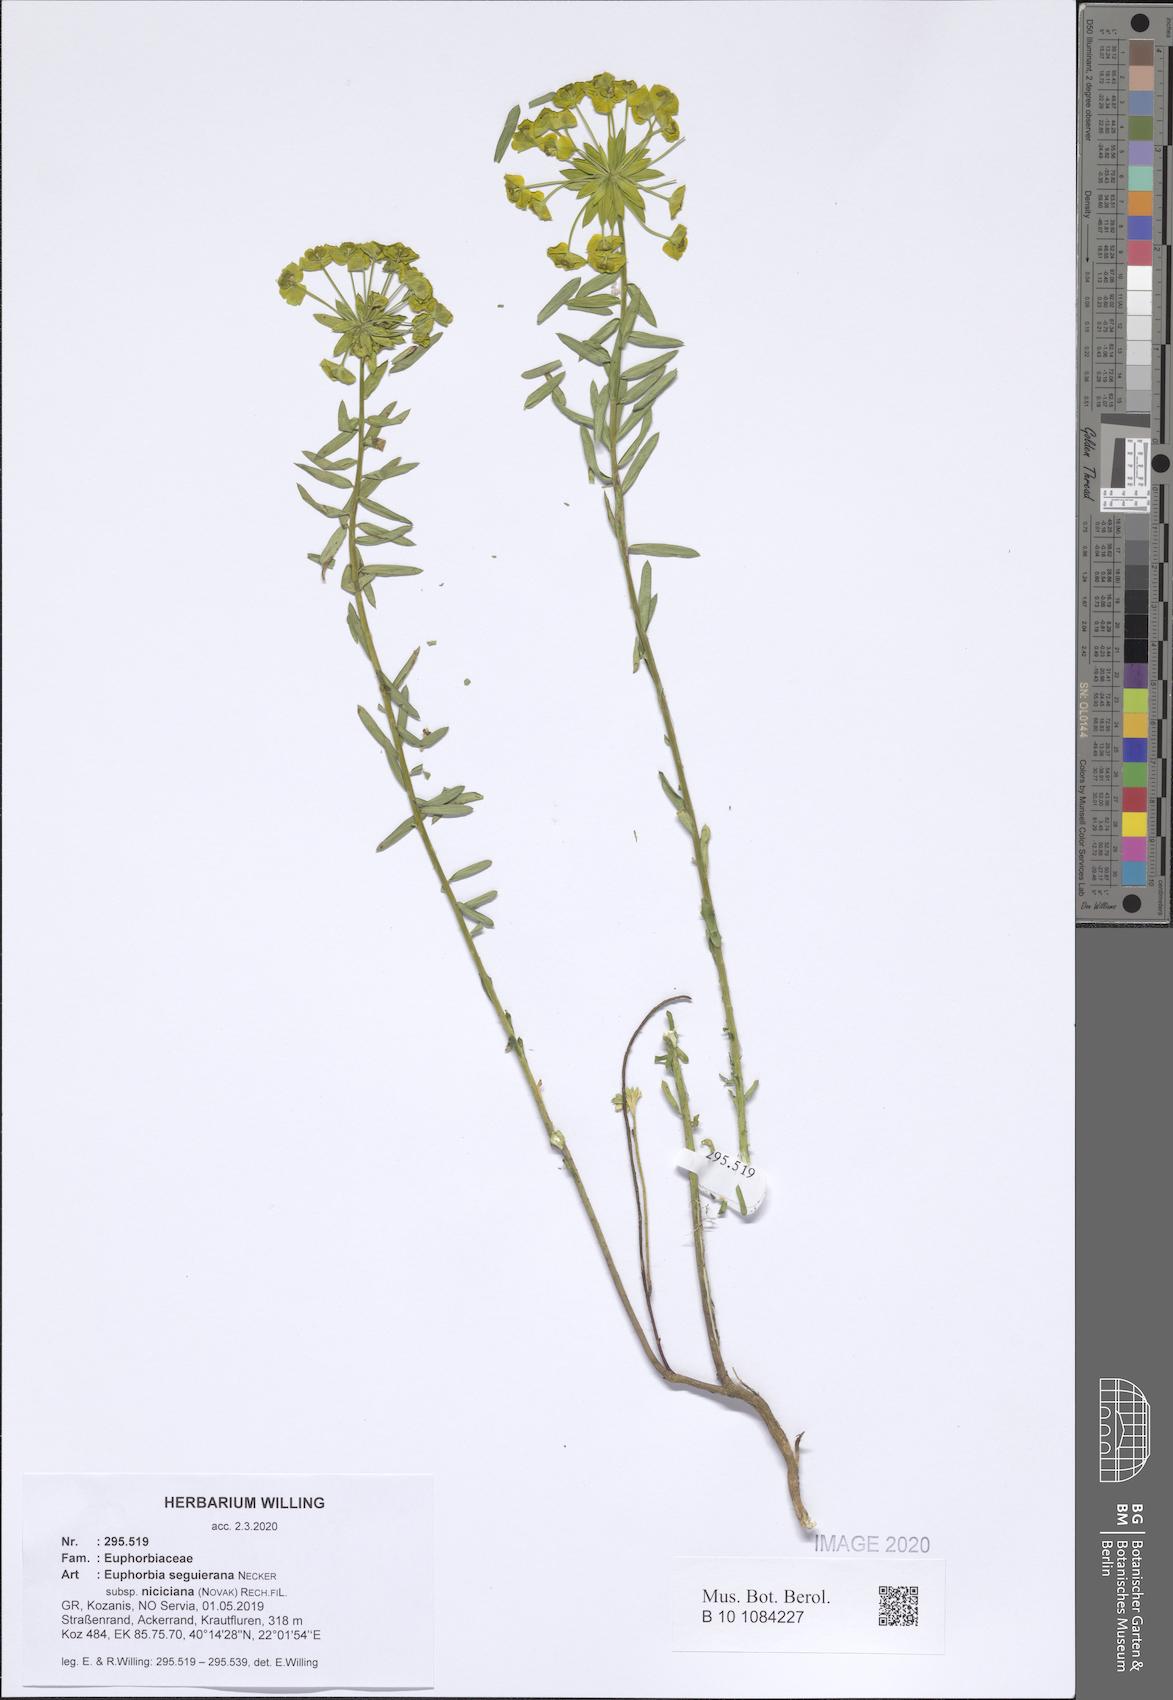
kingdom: Plantae
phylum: Tracheophyta
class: Magnoliopsida
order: Malpighiales
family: Euphorbiaceae
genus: Euphorbia
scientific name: Euphorbia seguieriana
